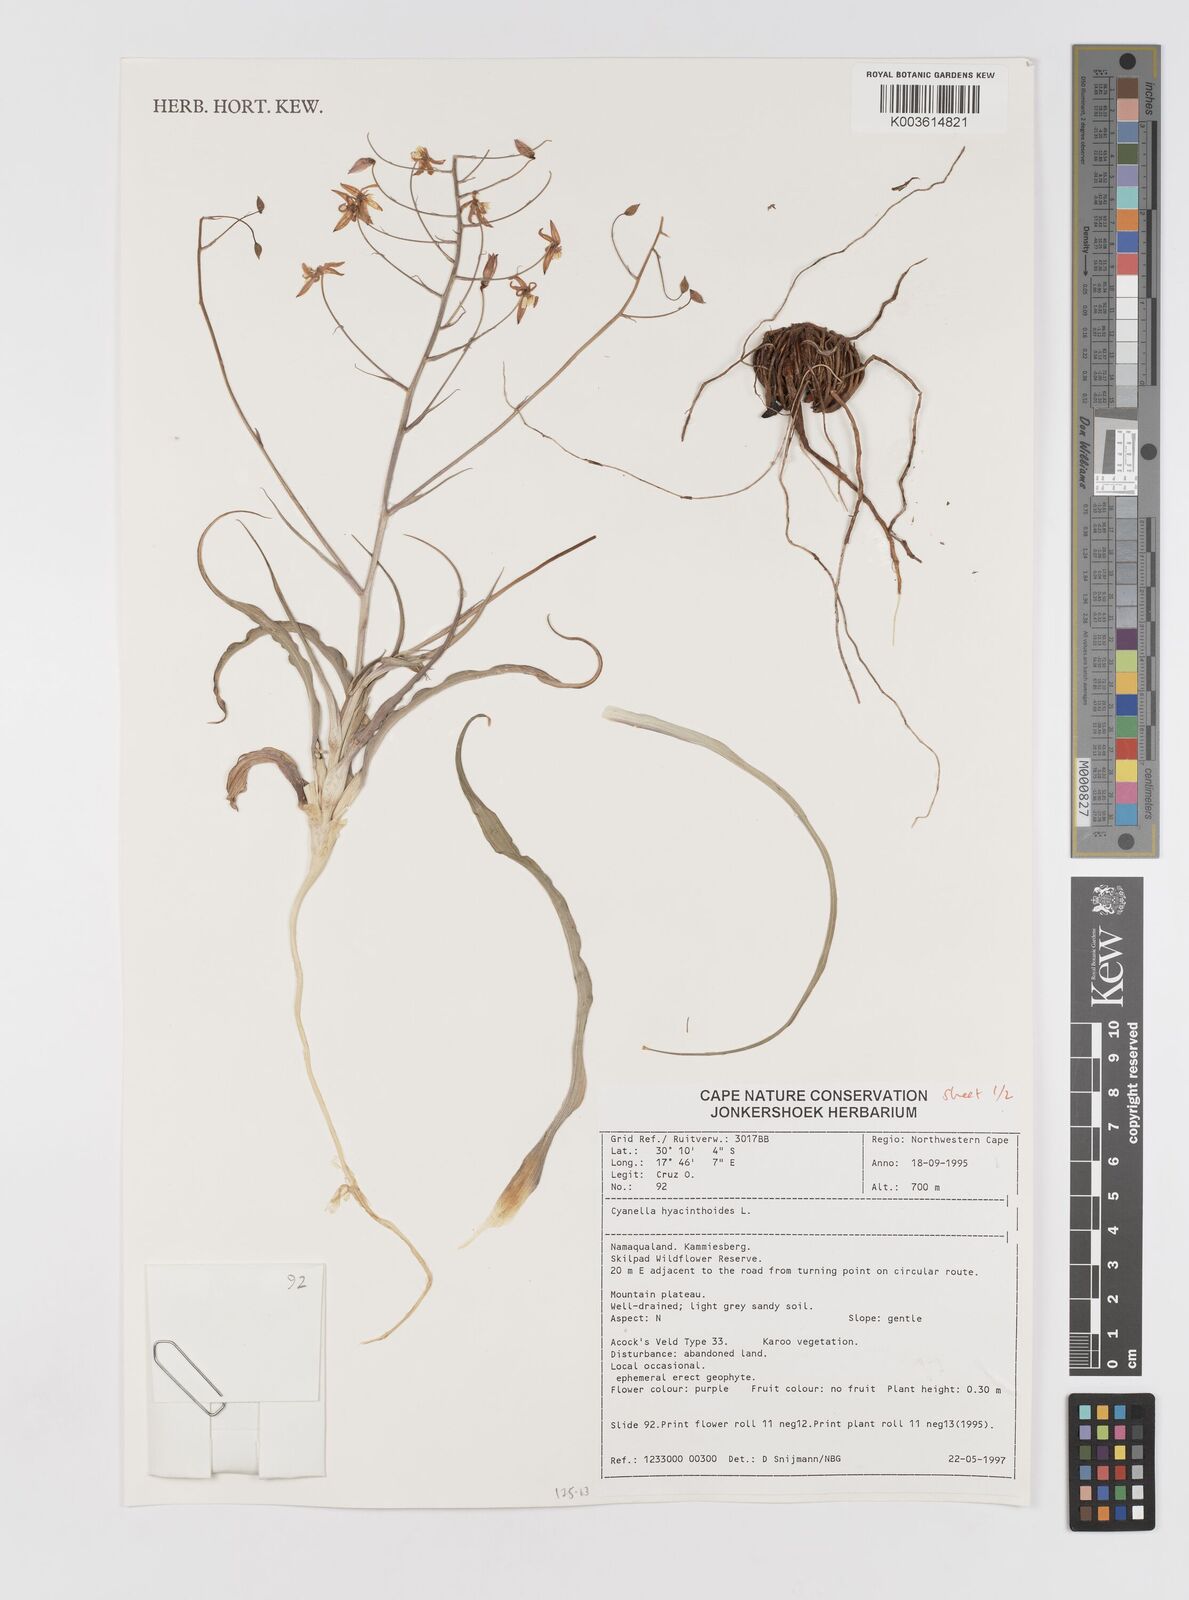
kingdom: Plantae
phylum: Tracheophyta
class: Liliopsida
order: Asparagales
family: Tecophilaeaceae
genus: Cyanella
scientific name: Cyanella hyacinthoides
